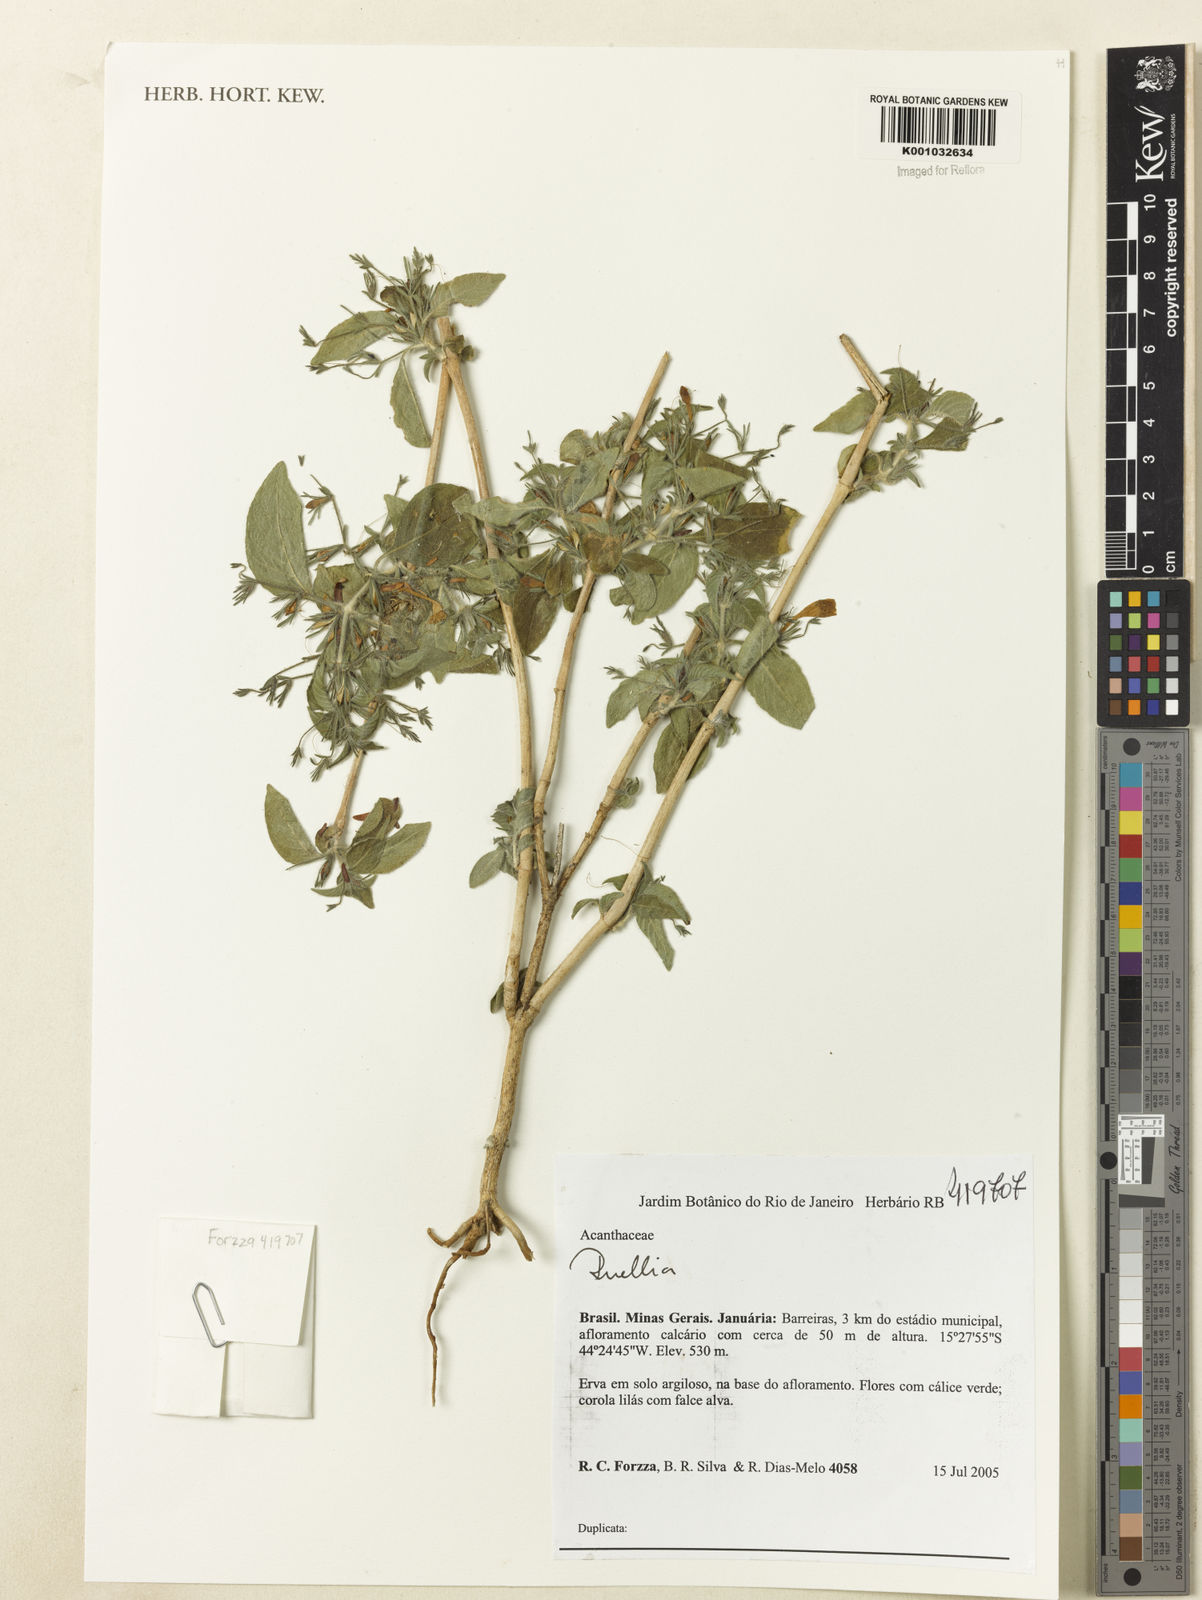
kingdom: Plantae
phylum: Tracheophyta
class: Magnoliopsida
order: Lamiales
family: Acanthaceae
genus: Ruellia
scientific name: Ruellia
